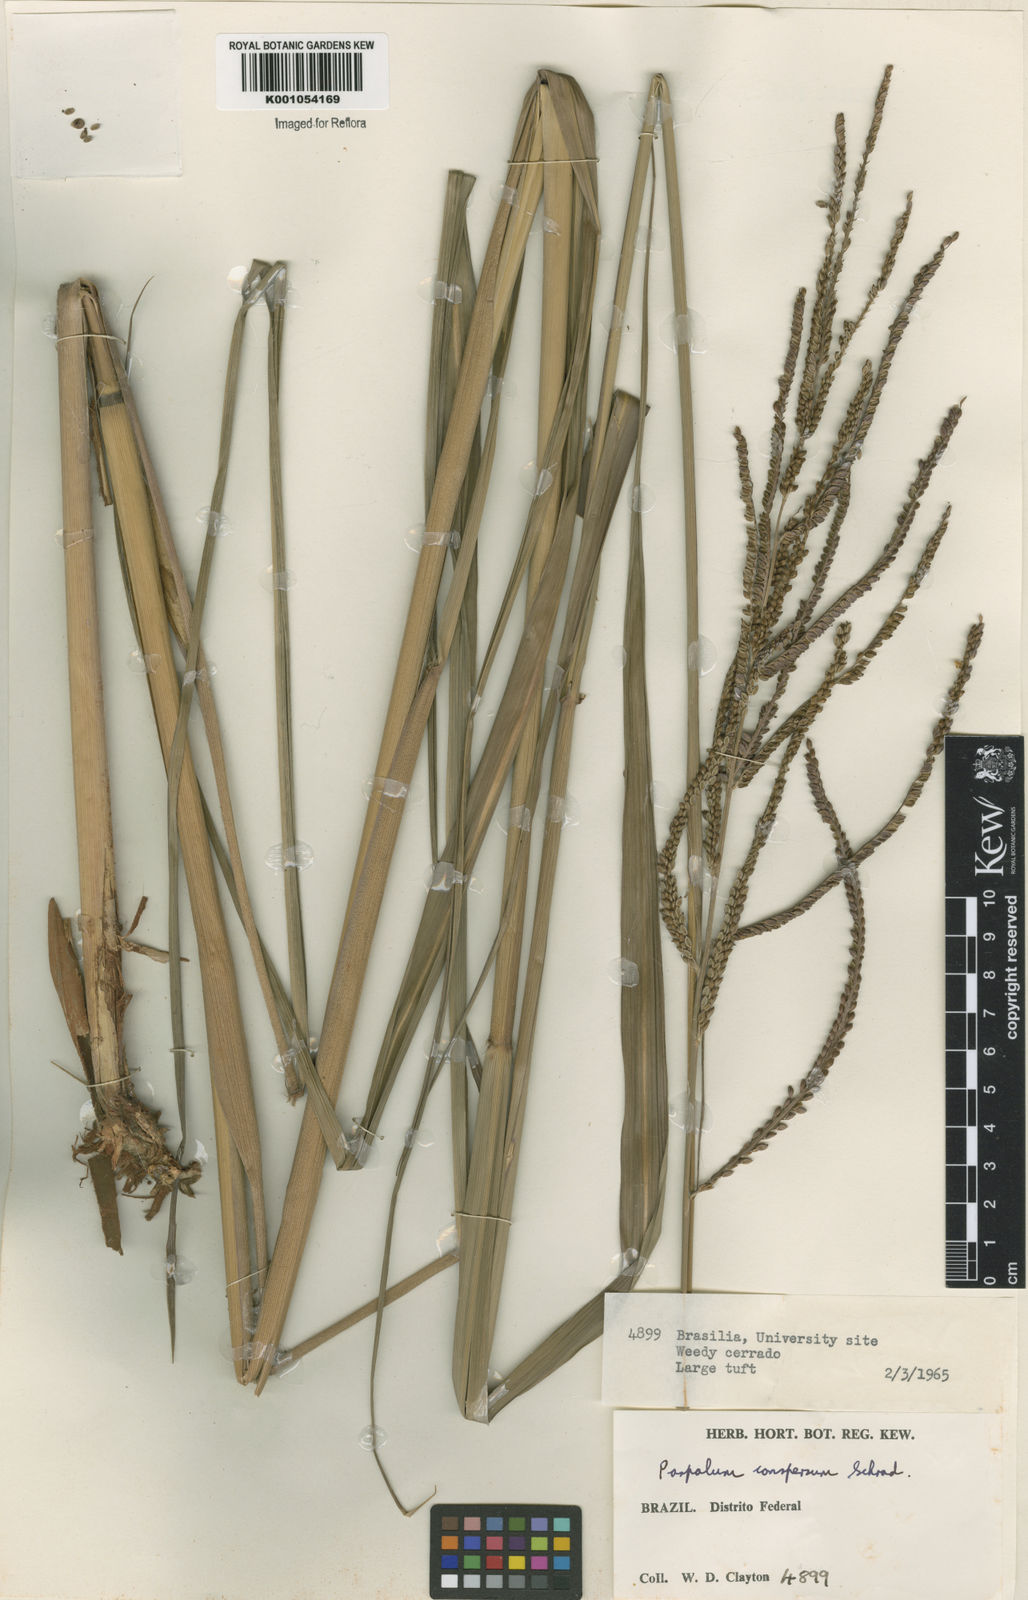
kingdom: Plantae
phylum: Tracheophyta
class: Liliopsida
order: Poales
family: Poaceae
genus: Paspalum
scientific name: Paspalum conspersum
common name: Scattered paspalum
